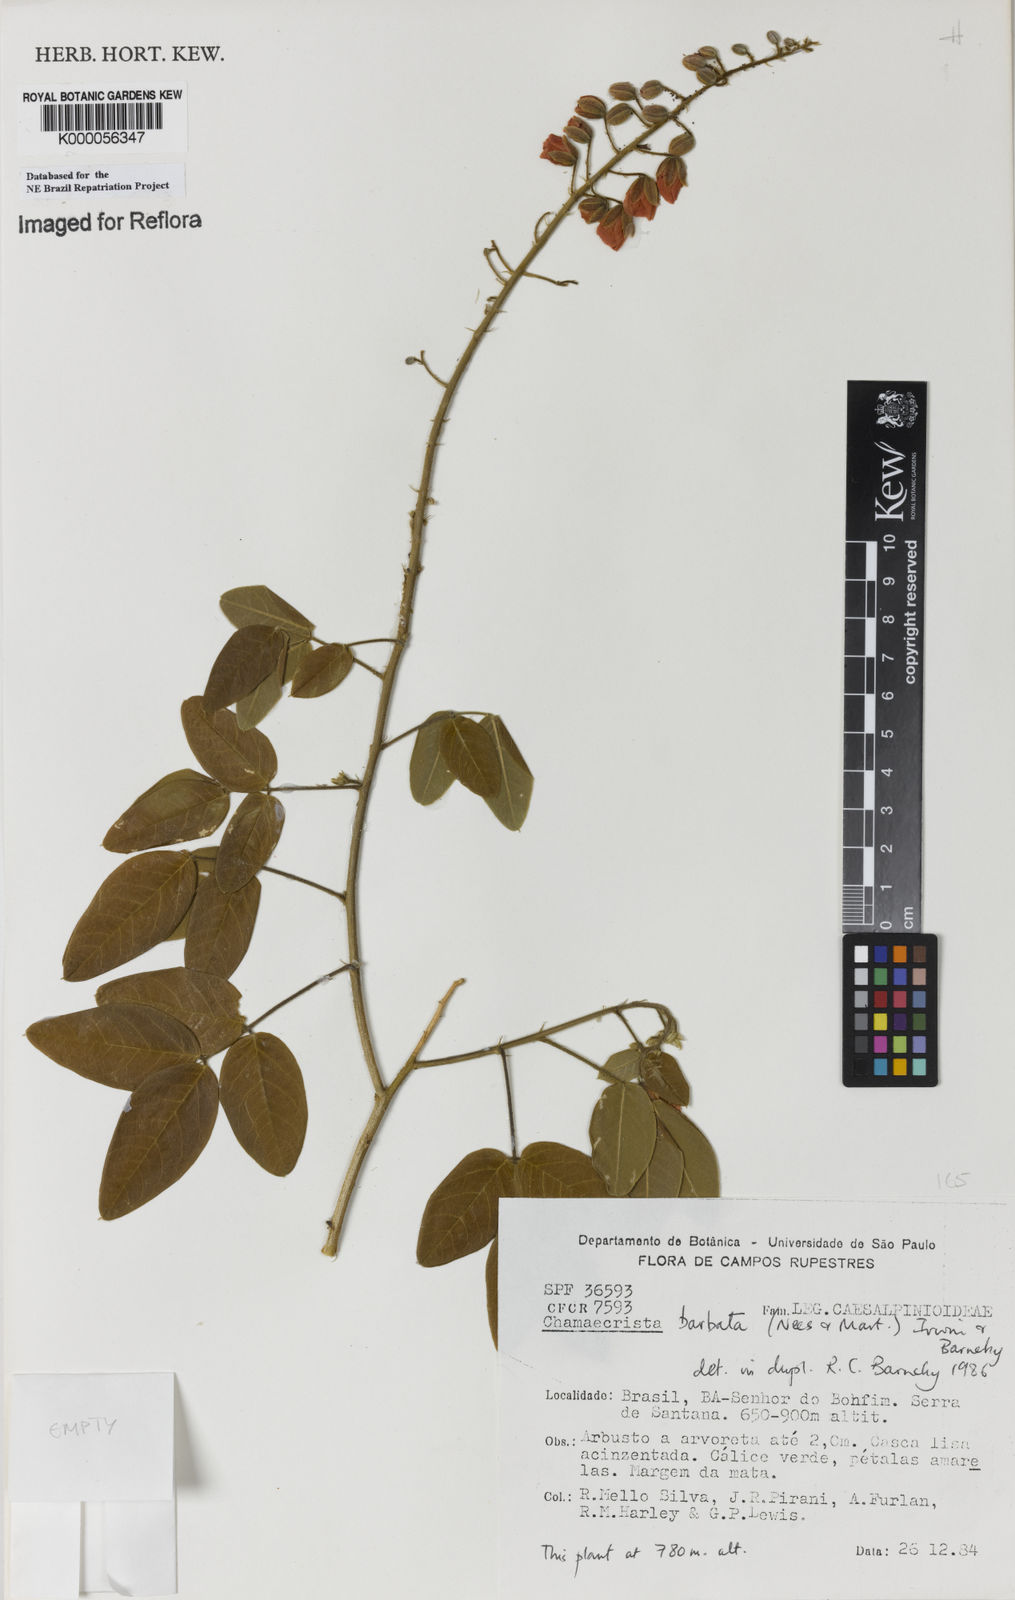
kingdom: Plantae
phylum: Tracheophyta
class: Magnoliopsida
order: Fabales
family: Fabaceae
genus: Chamaecrista
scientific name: Chamaecrista barbata
